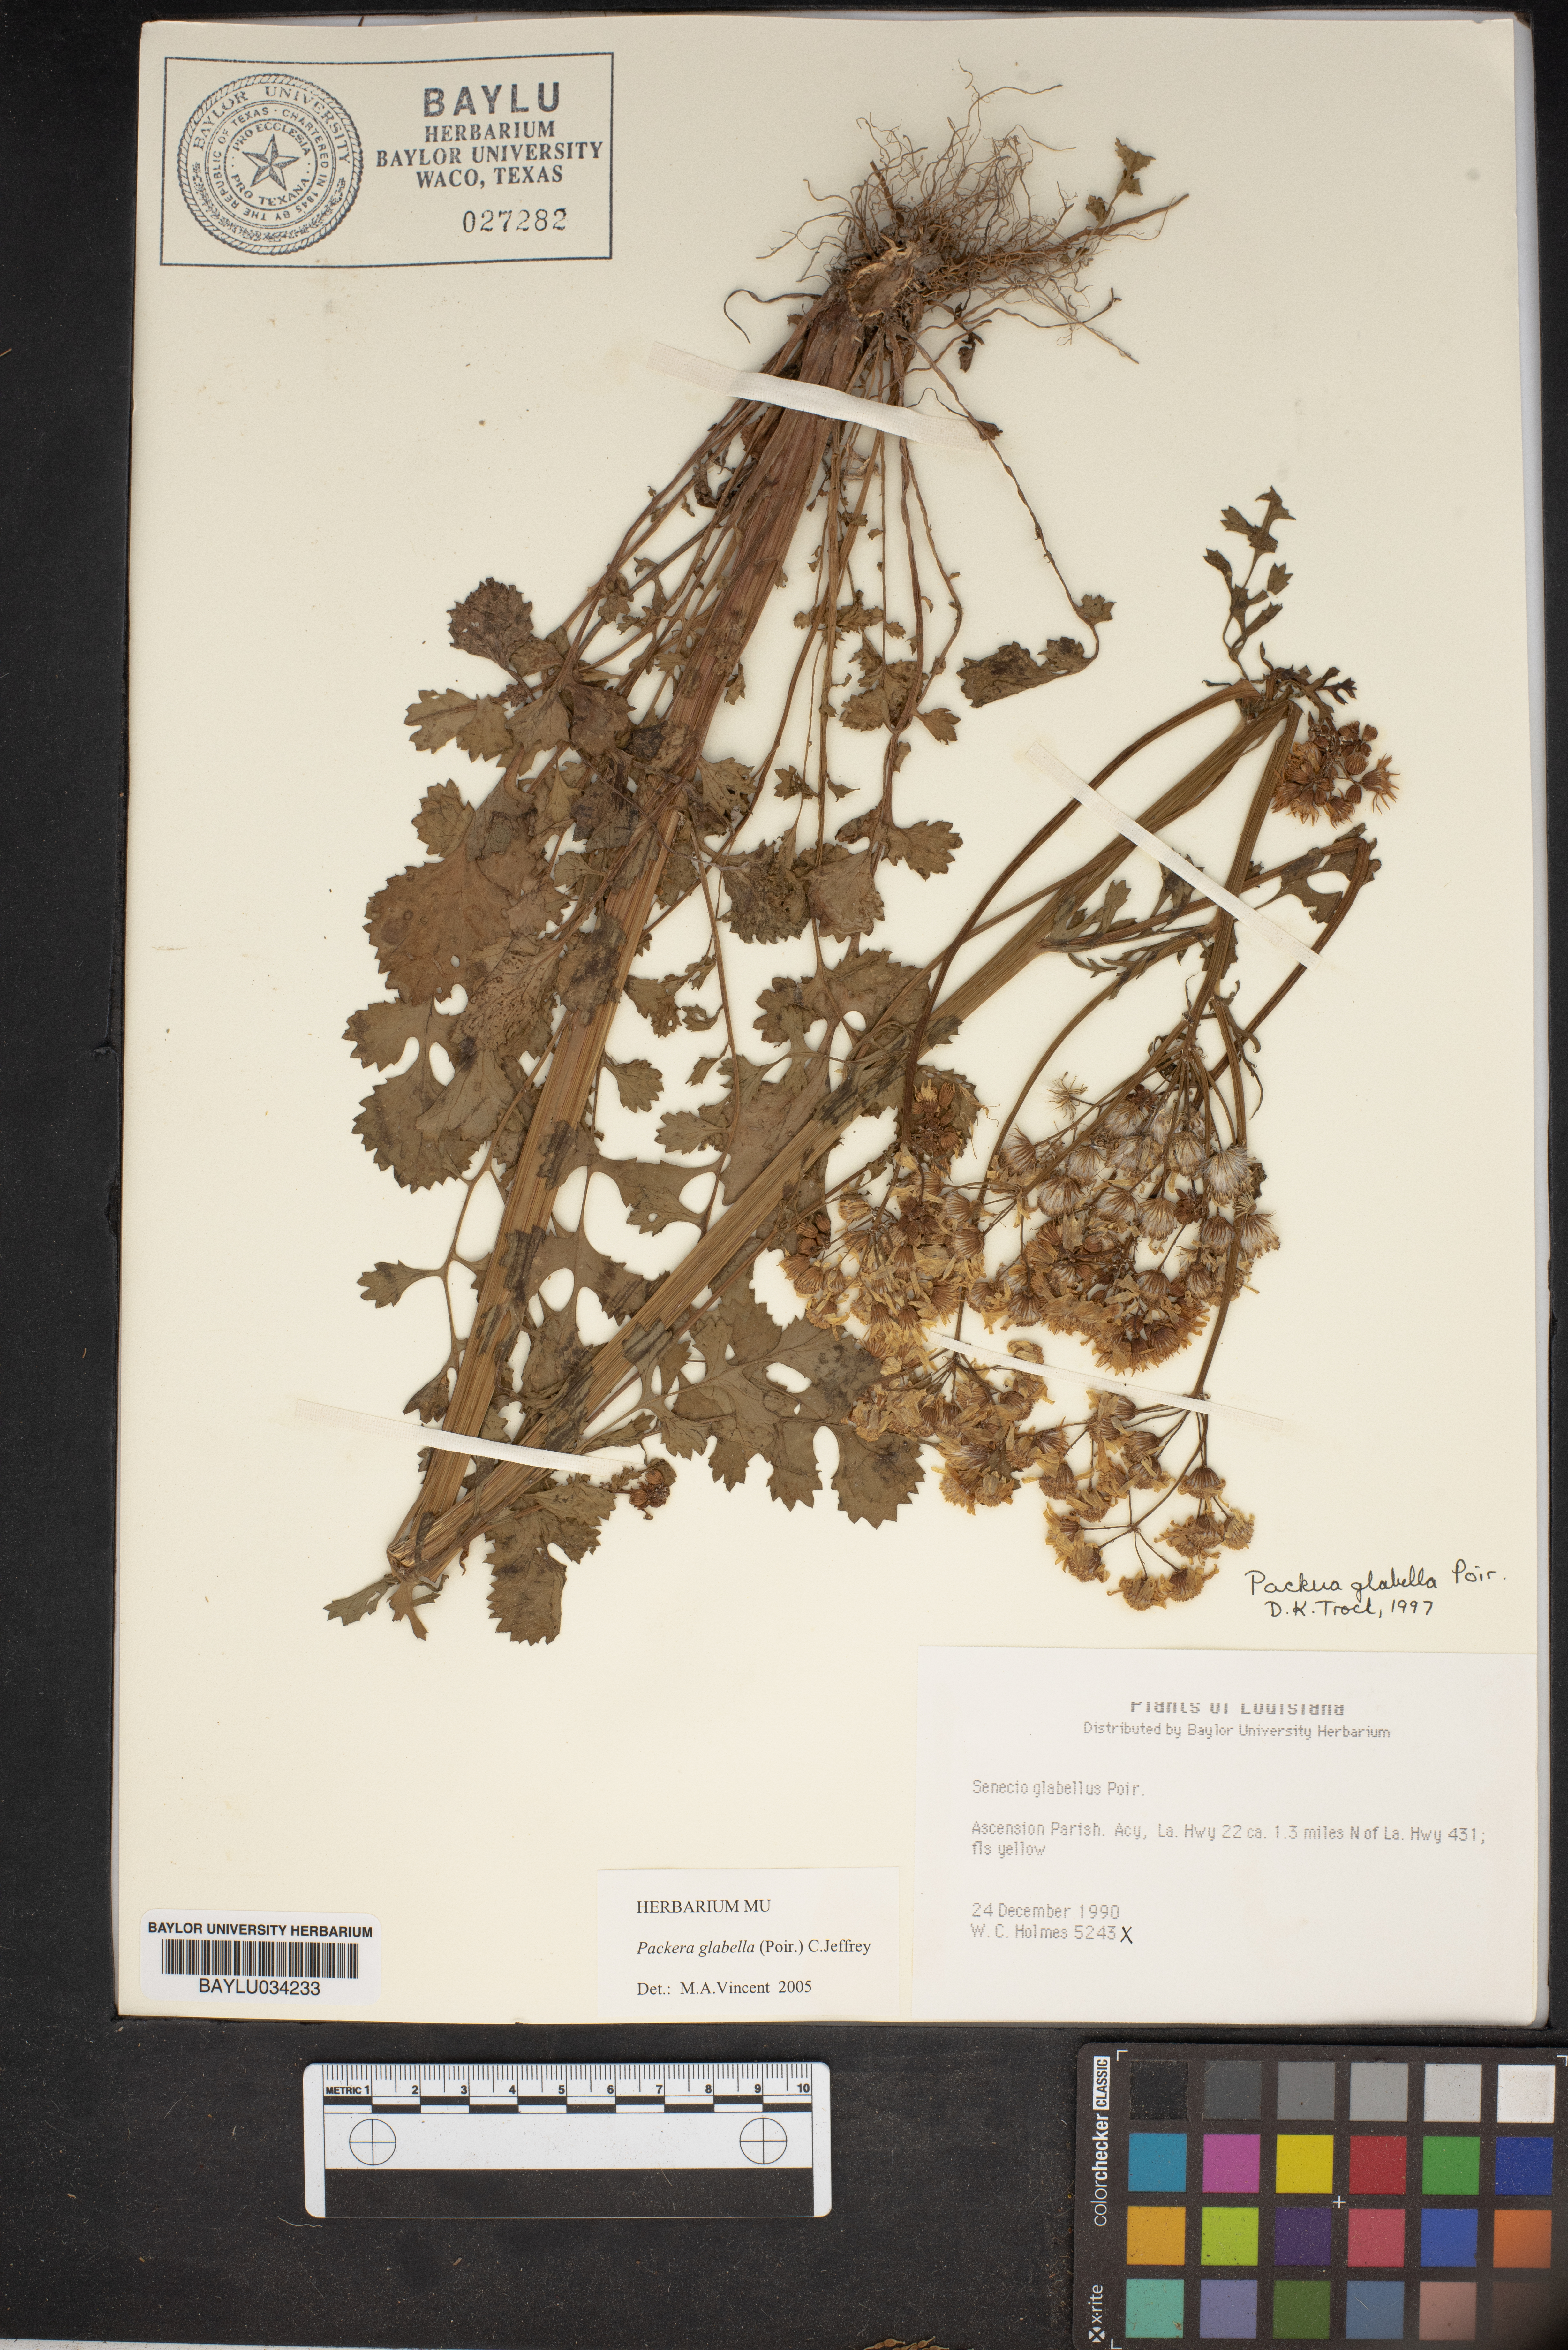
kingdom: Plantae
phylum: Tracheophyta
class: Magnoliopsida
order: Asterales
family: Asteraceae
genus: Packera
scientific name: Packera glabella
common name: Butterweed
